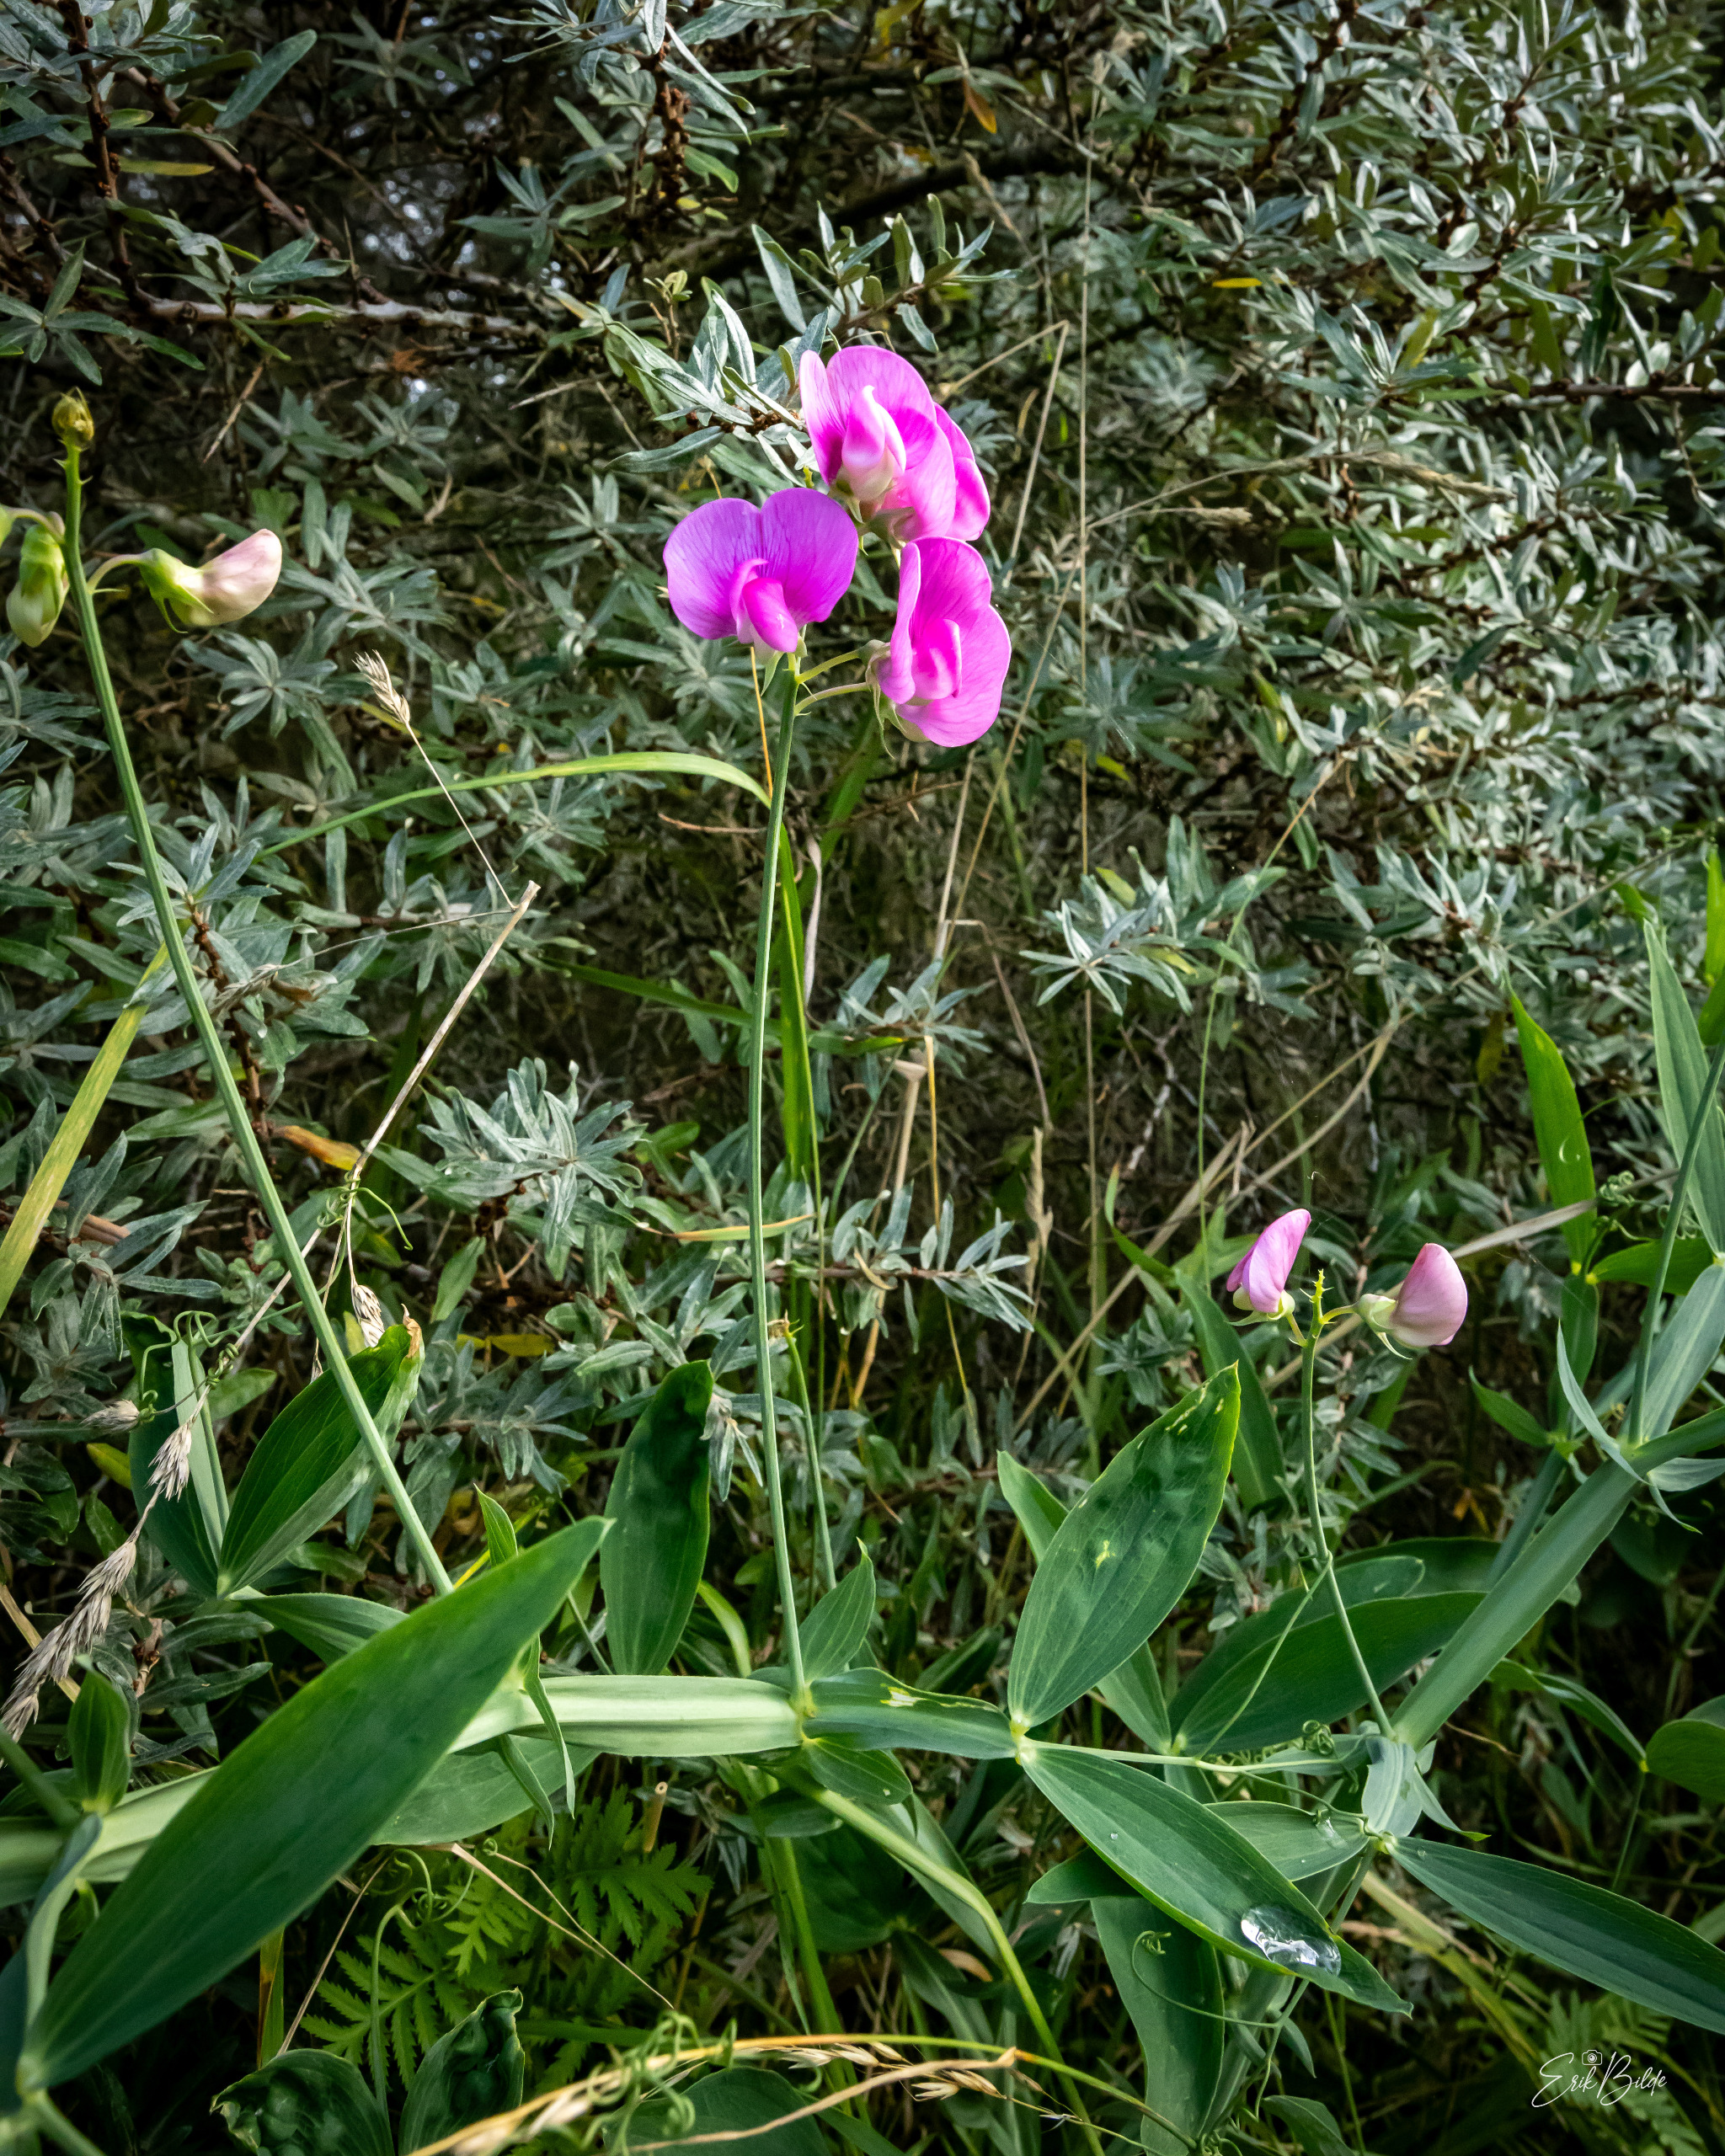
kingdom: Plantae
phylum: Tracheophyta
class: Magnoliopsida
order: Fabales
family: Fabaceae
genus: Lathyrus
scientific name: Lathyrus latifolius
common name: Flerårig ærteblomst
